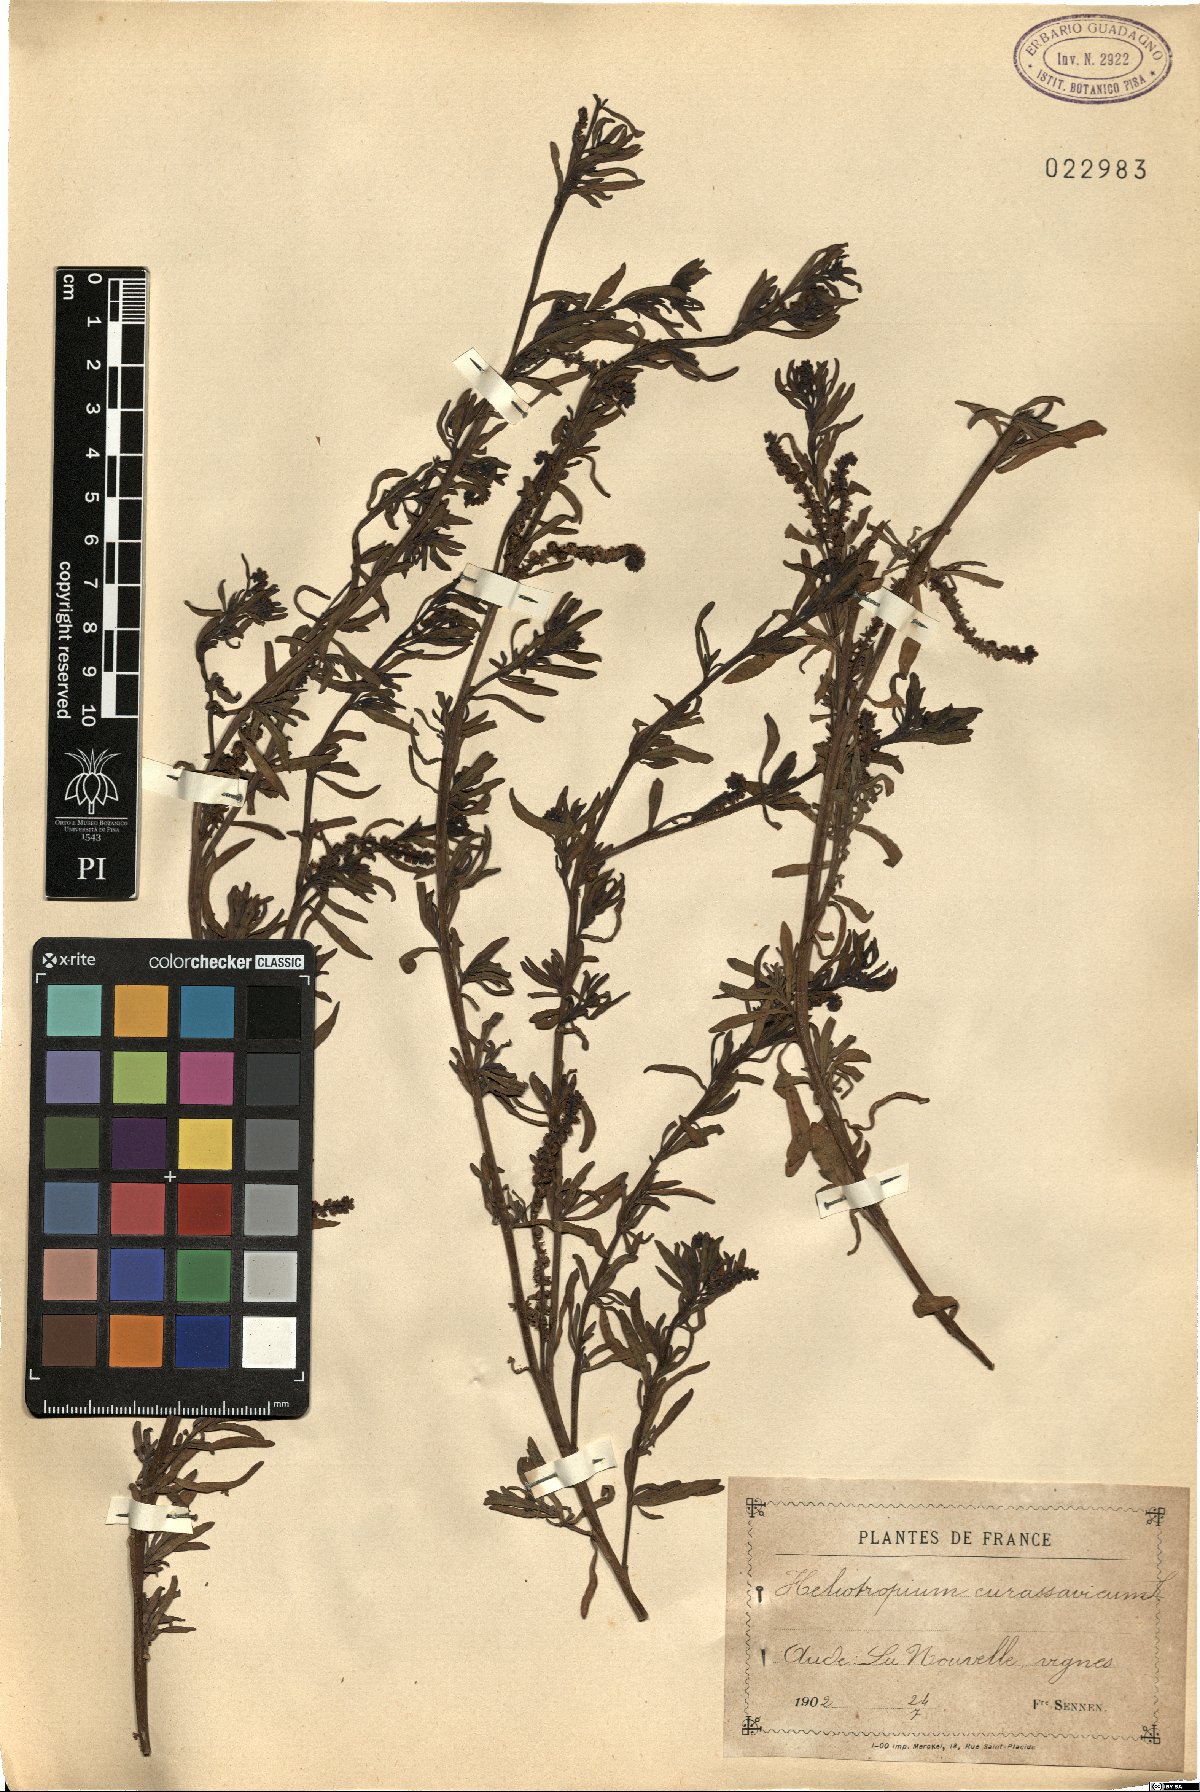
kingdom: Plantae
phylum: Tracheophyta
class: Magnoliopsida
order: Boraginales
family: Heliotropiaceae
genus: Heliotropium
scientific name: Heliotropium curassavicum
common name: Seaside heliotrope
